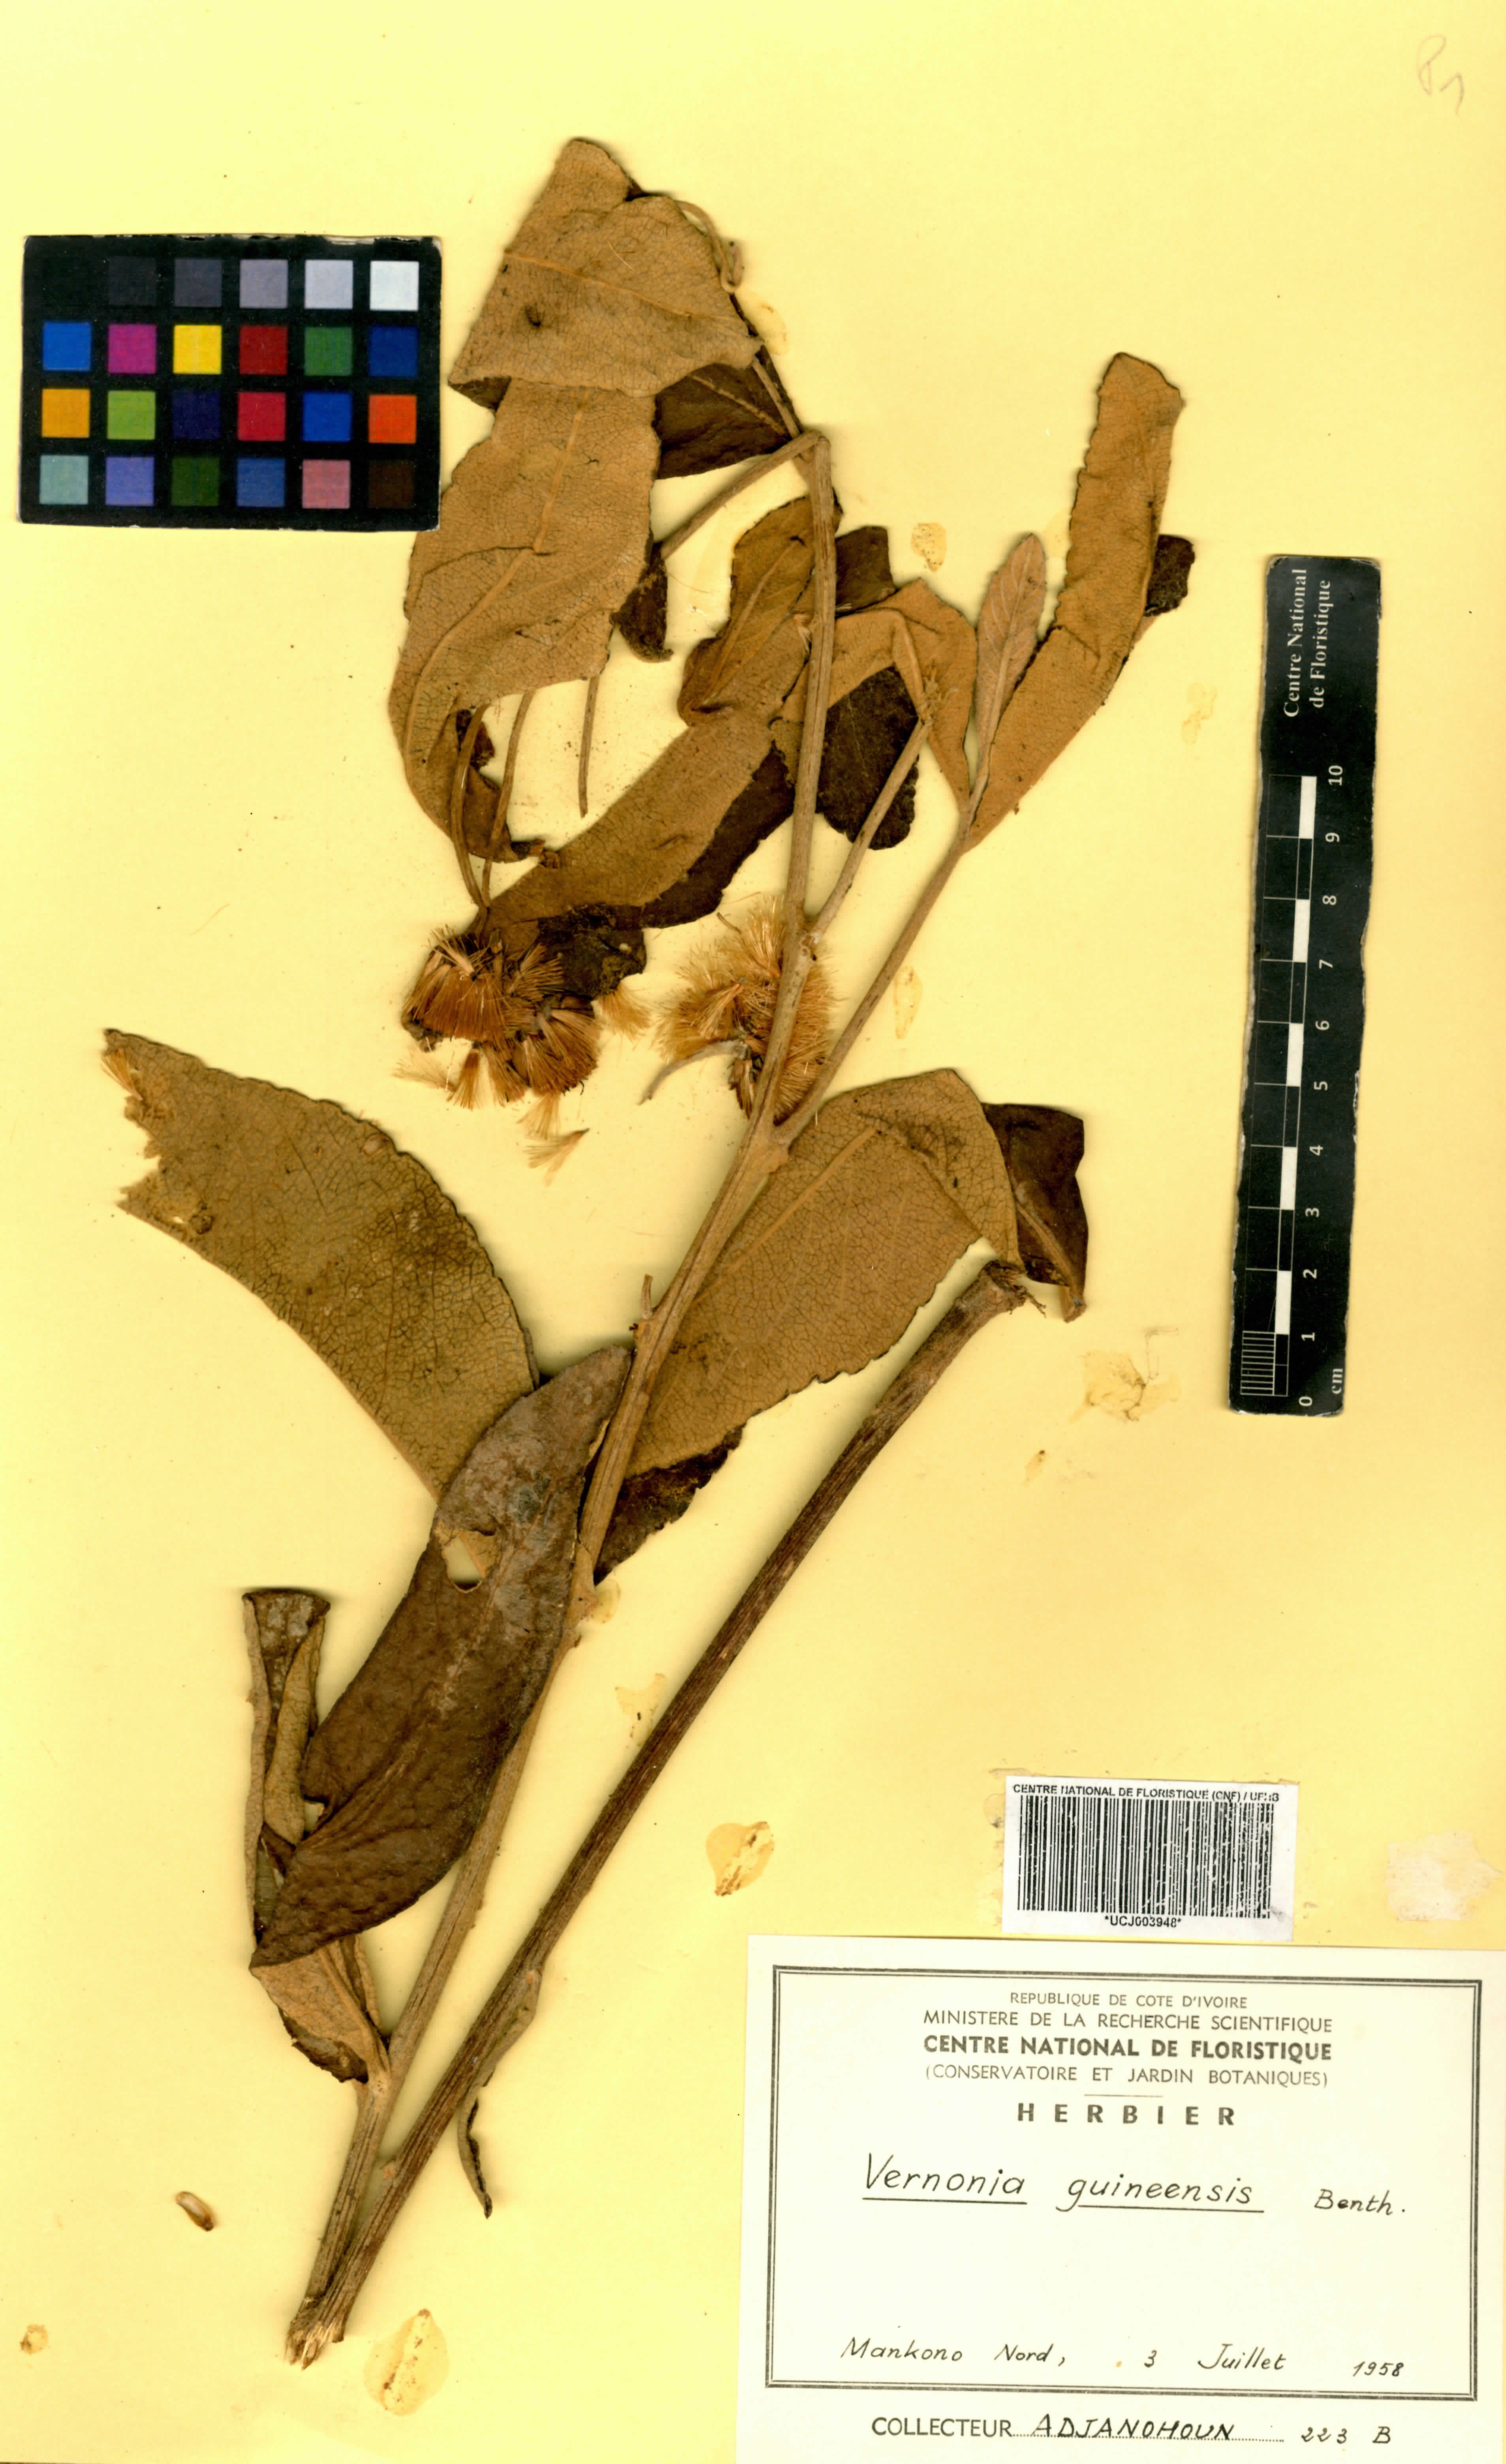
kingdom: Plantae
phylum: Tracheophyta
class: Magnoliopsida
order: Asterales
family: Asteraceae
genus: Baccharoides
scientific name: Baccharoides guineensis
